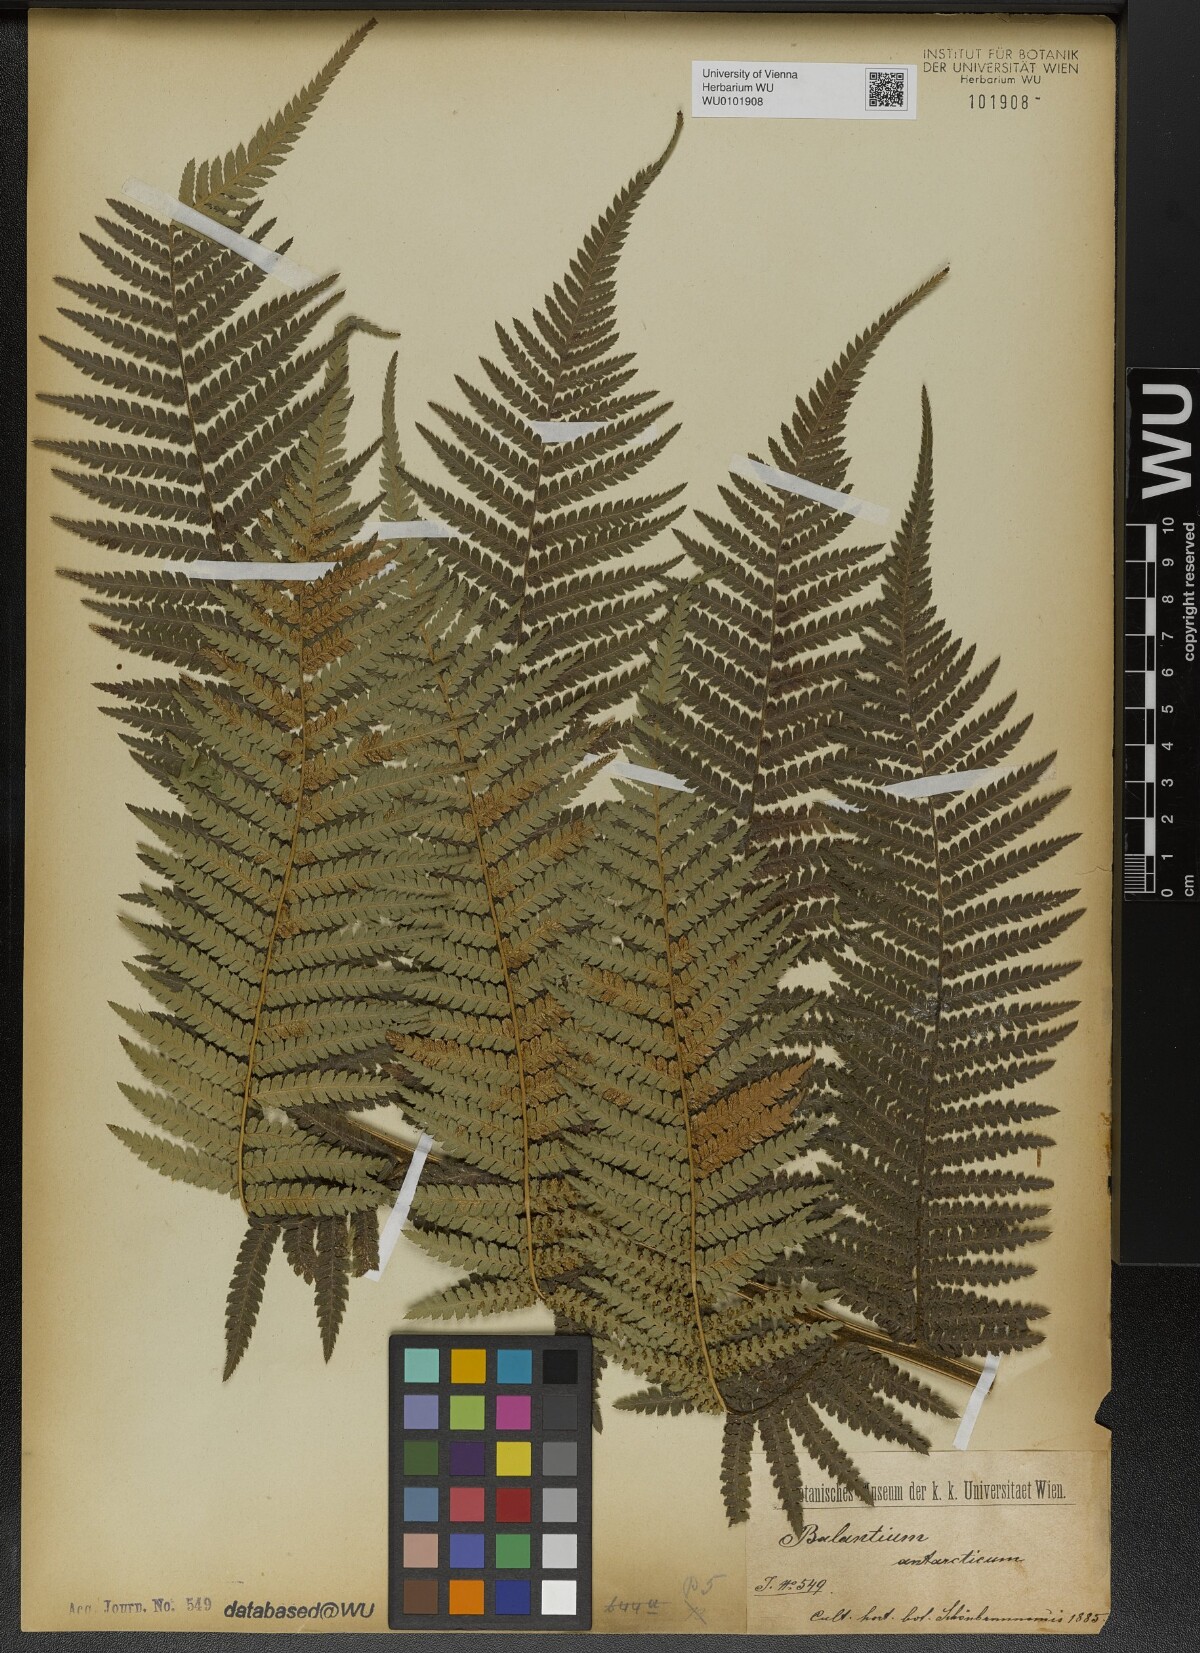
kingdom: Plantae
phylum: Tracheophyta
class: Polypodiopsida
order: Cyatheales
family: Dicksoniaceae
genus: Dicksonia
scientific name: Dicksonia antarctica
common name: Australian treefern
